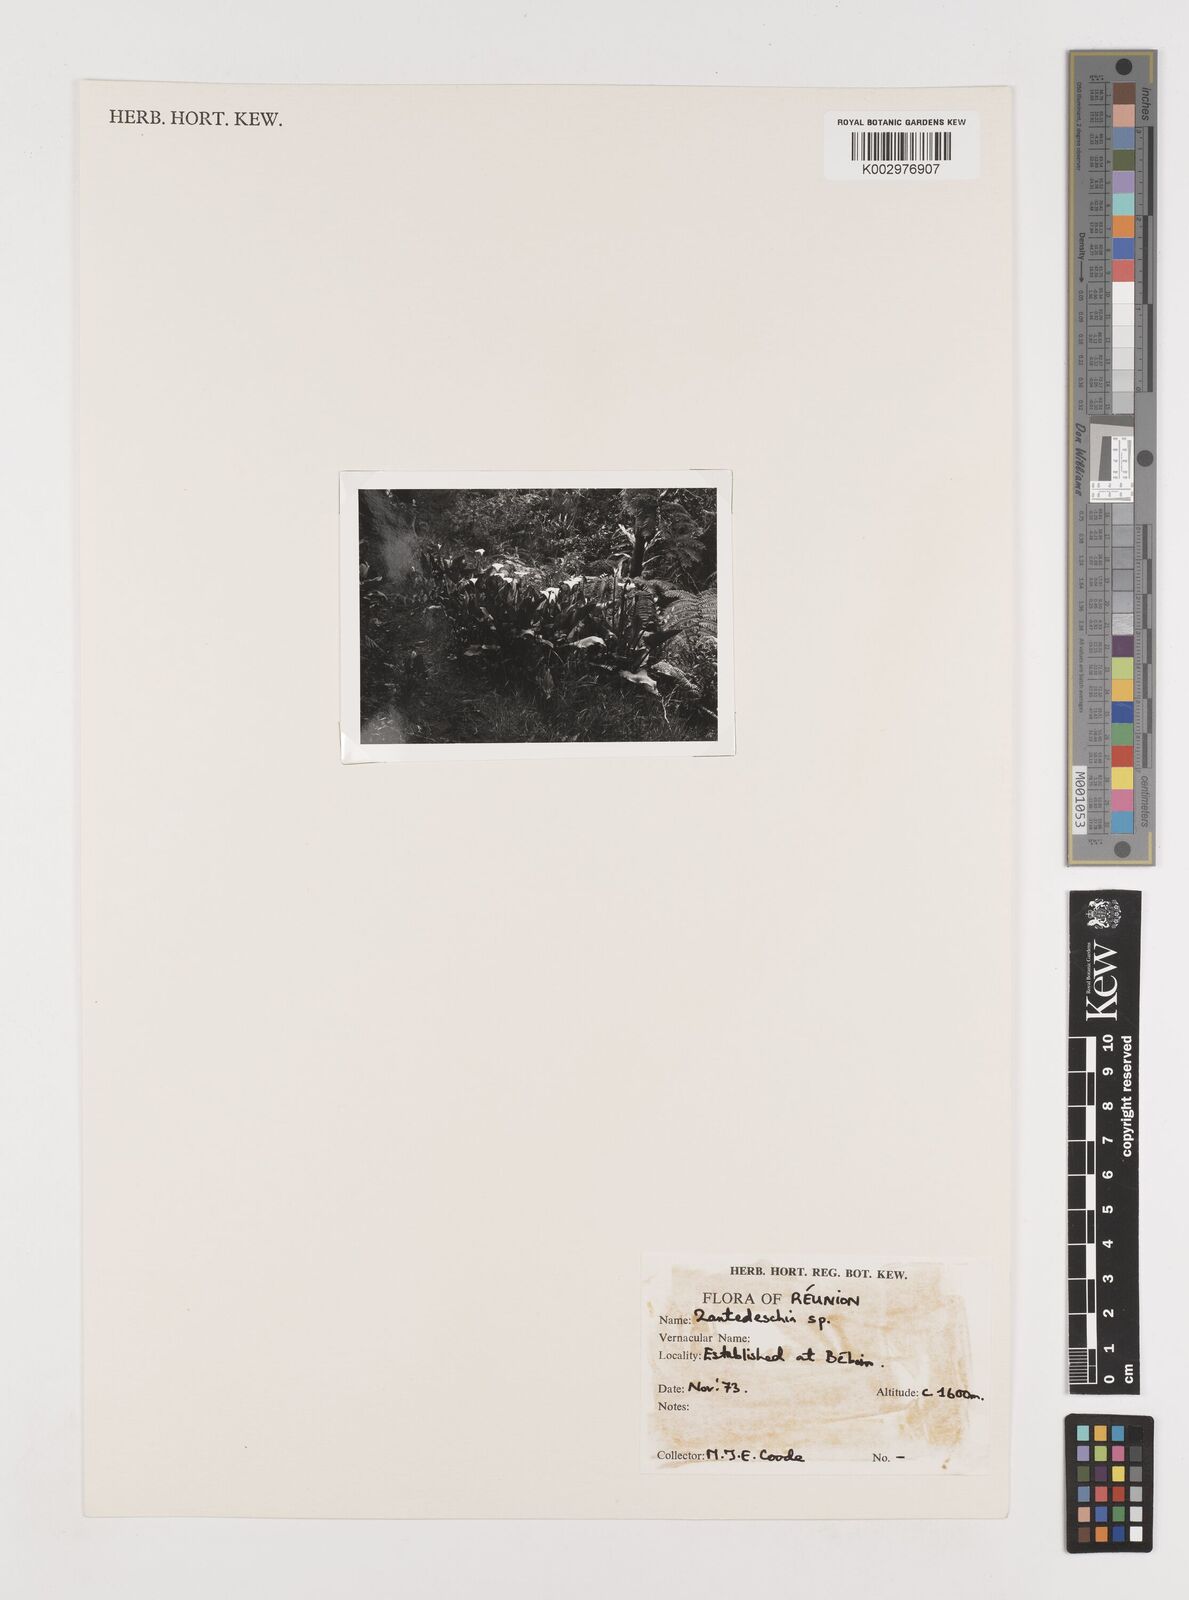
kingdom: Plantae
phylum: Tracheophyta
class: Liliopsida
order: Alismatales
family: Araceae
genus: Zantedeschia
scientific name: Zantedeschia aethiopica
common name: Altar-lily
